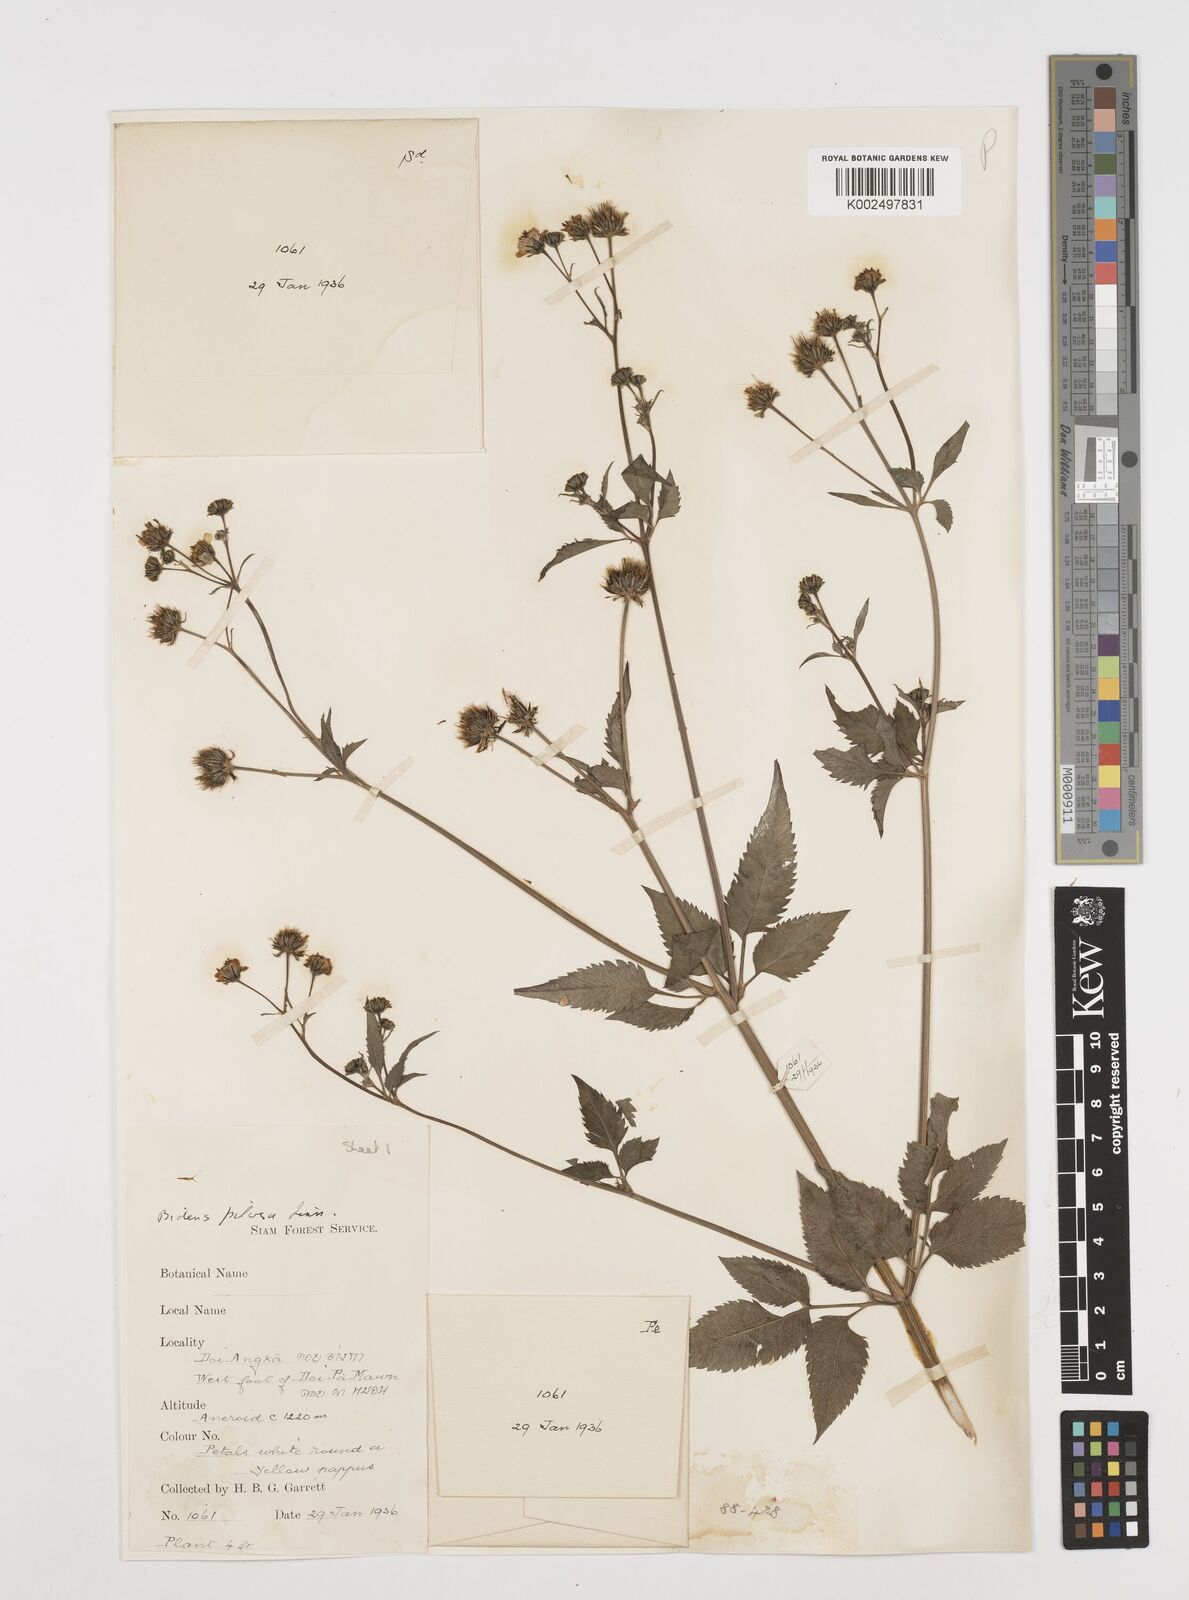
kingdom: Plantae
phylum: Tracheophyta
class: Magnoliopsida
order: Asterales
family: Asteraceae
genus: Bidens
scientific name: Bidens pilosa
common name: Black-jack
